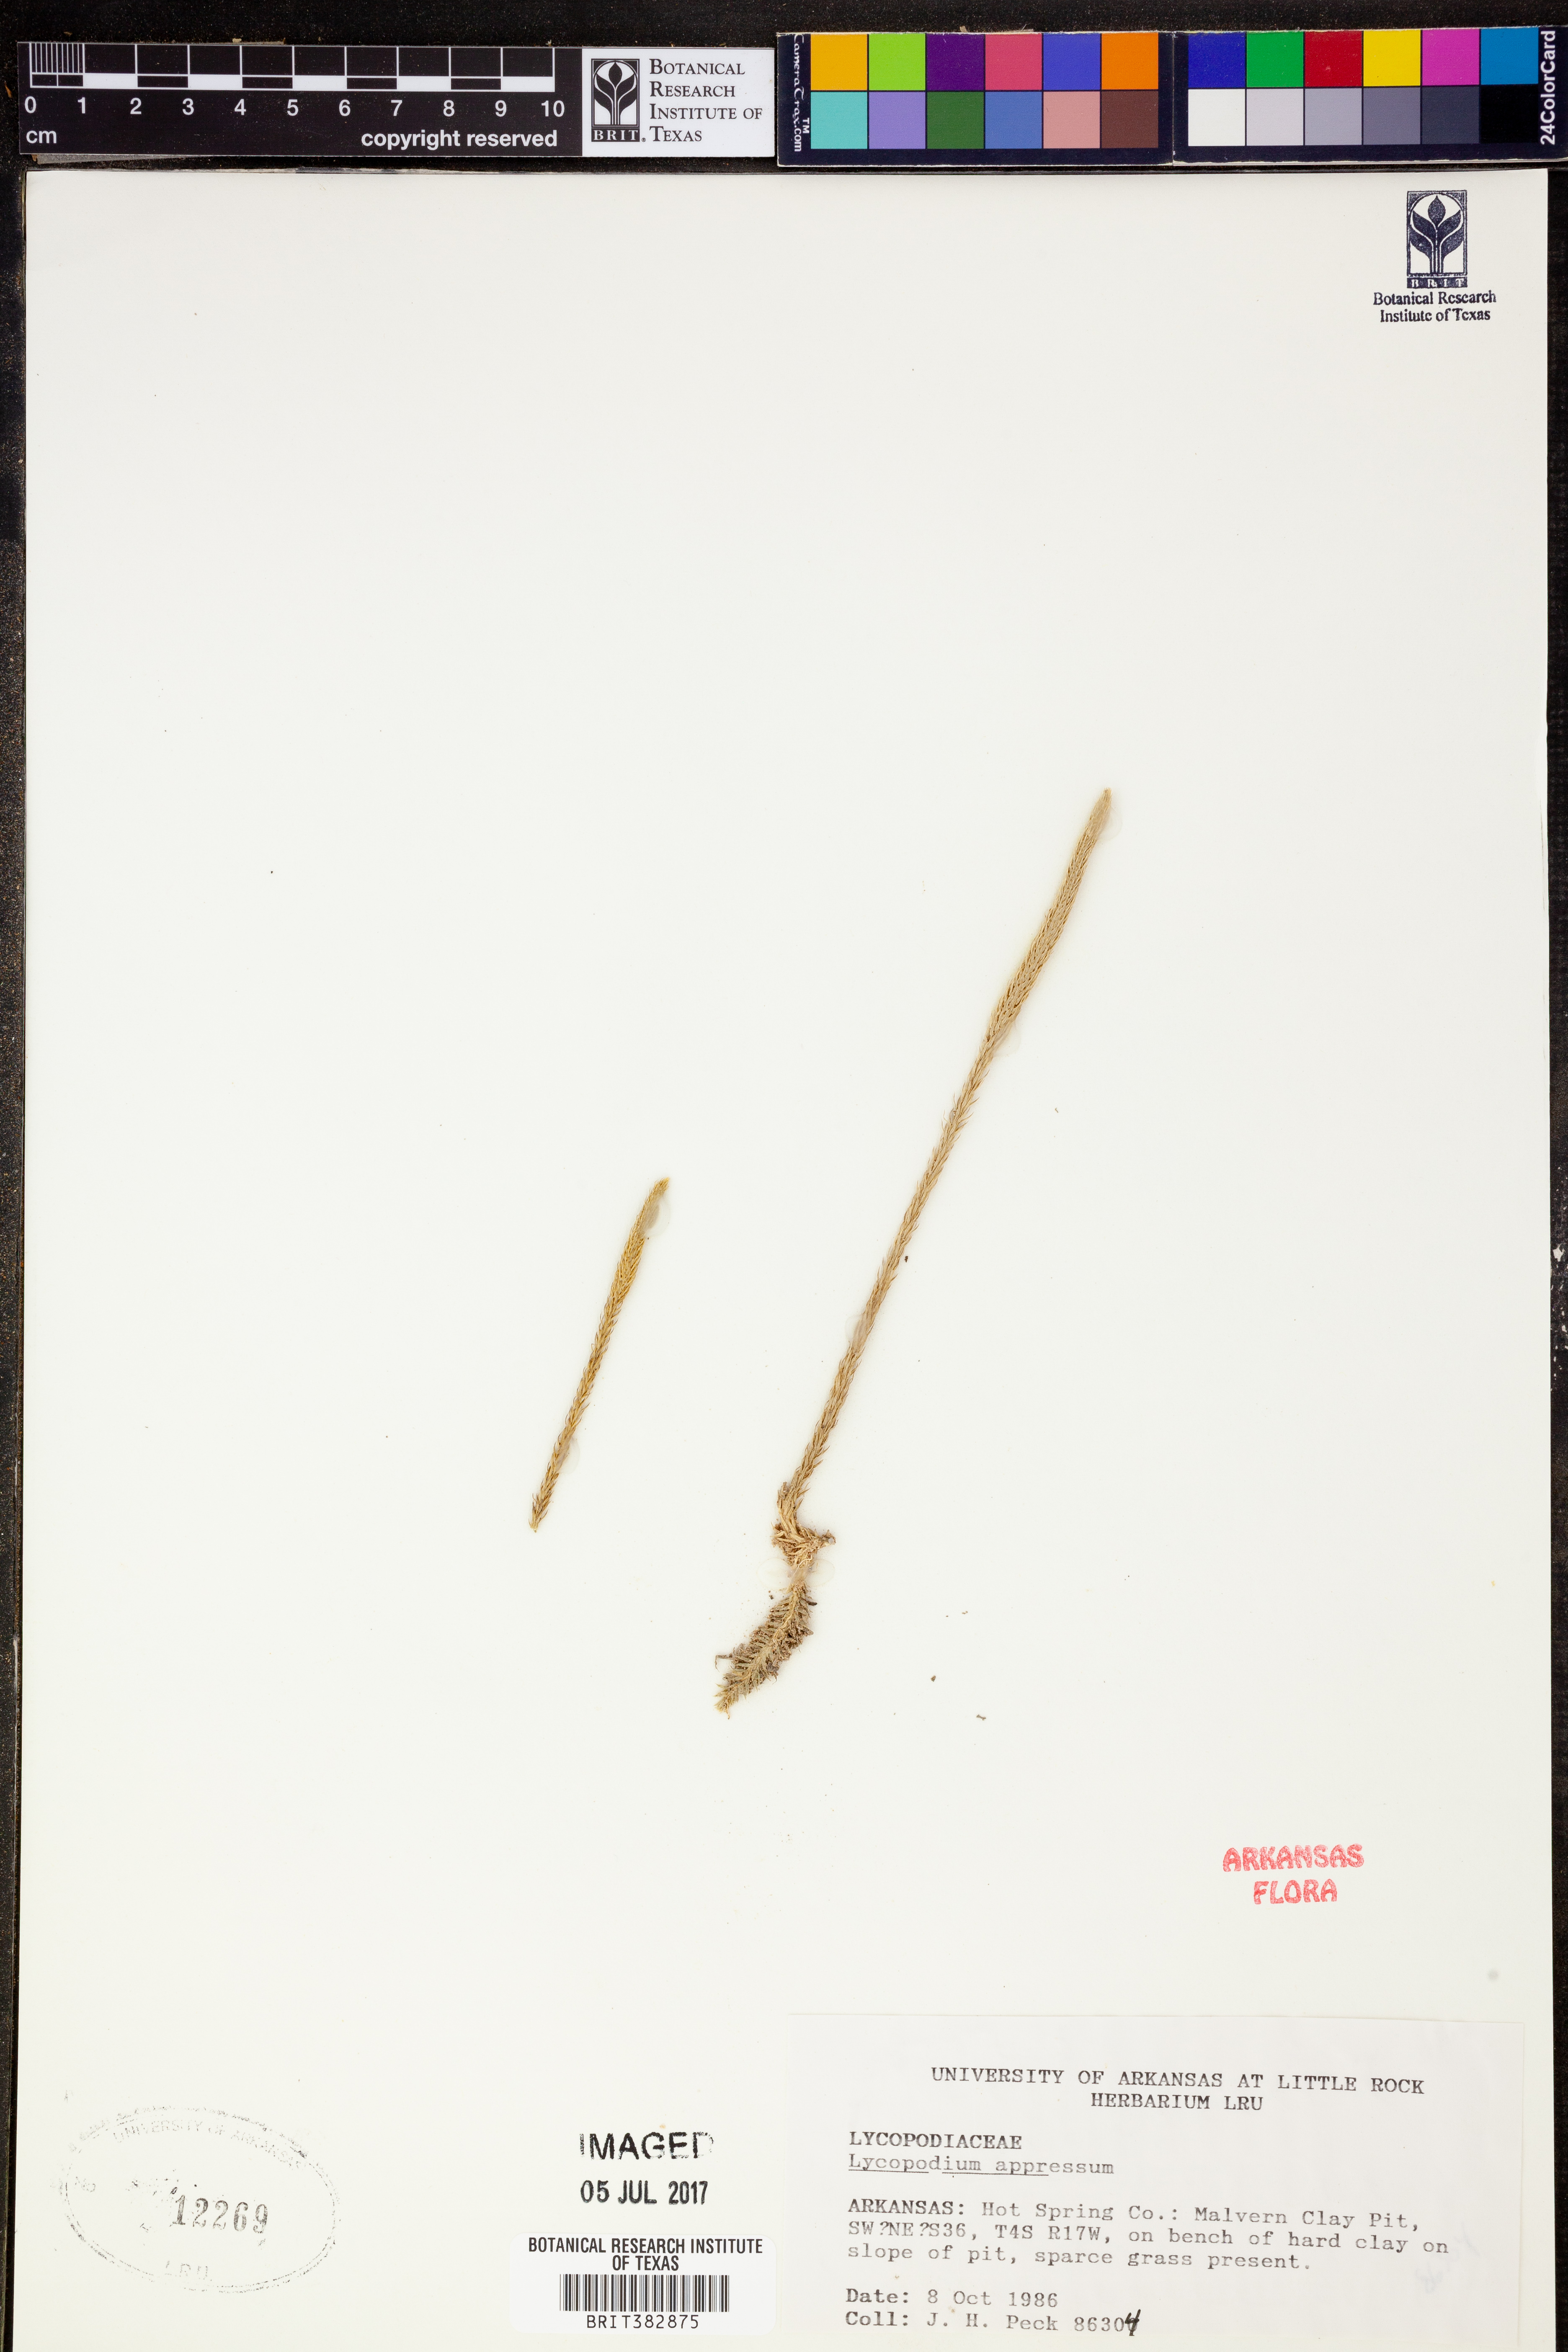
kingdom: Plantae
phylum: Tracheophyta
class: Lycopodiopsida
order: Lycopodiales
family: Lycopodiaceae
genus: Lycopodiella
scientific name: Lycopodiella appressa
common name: Appressed bog clubmoss
